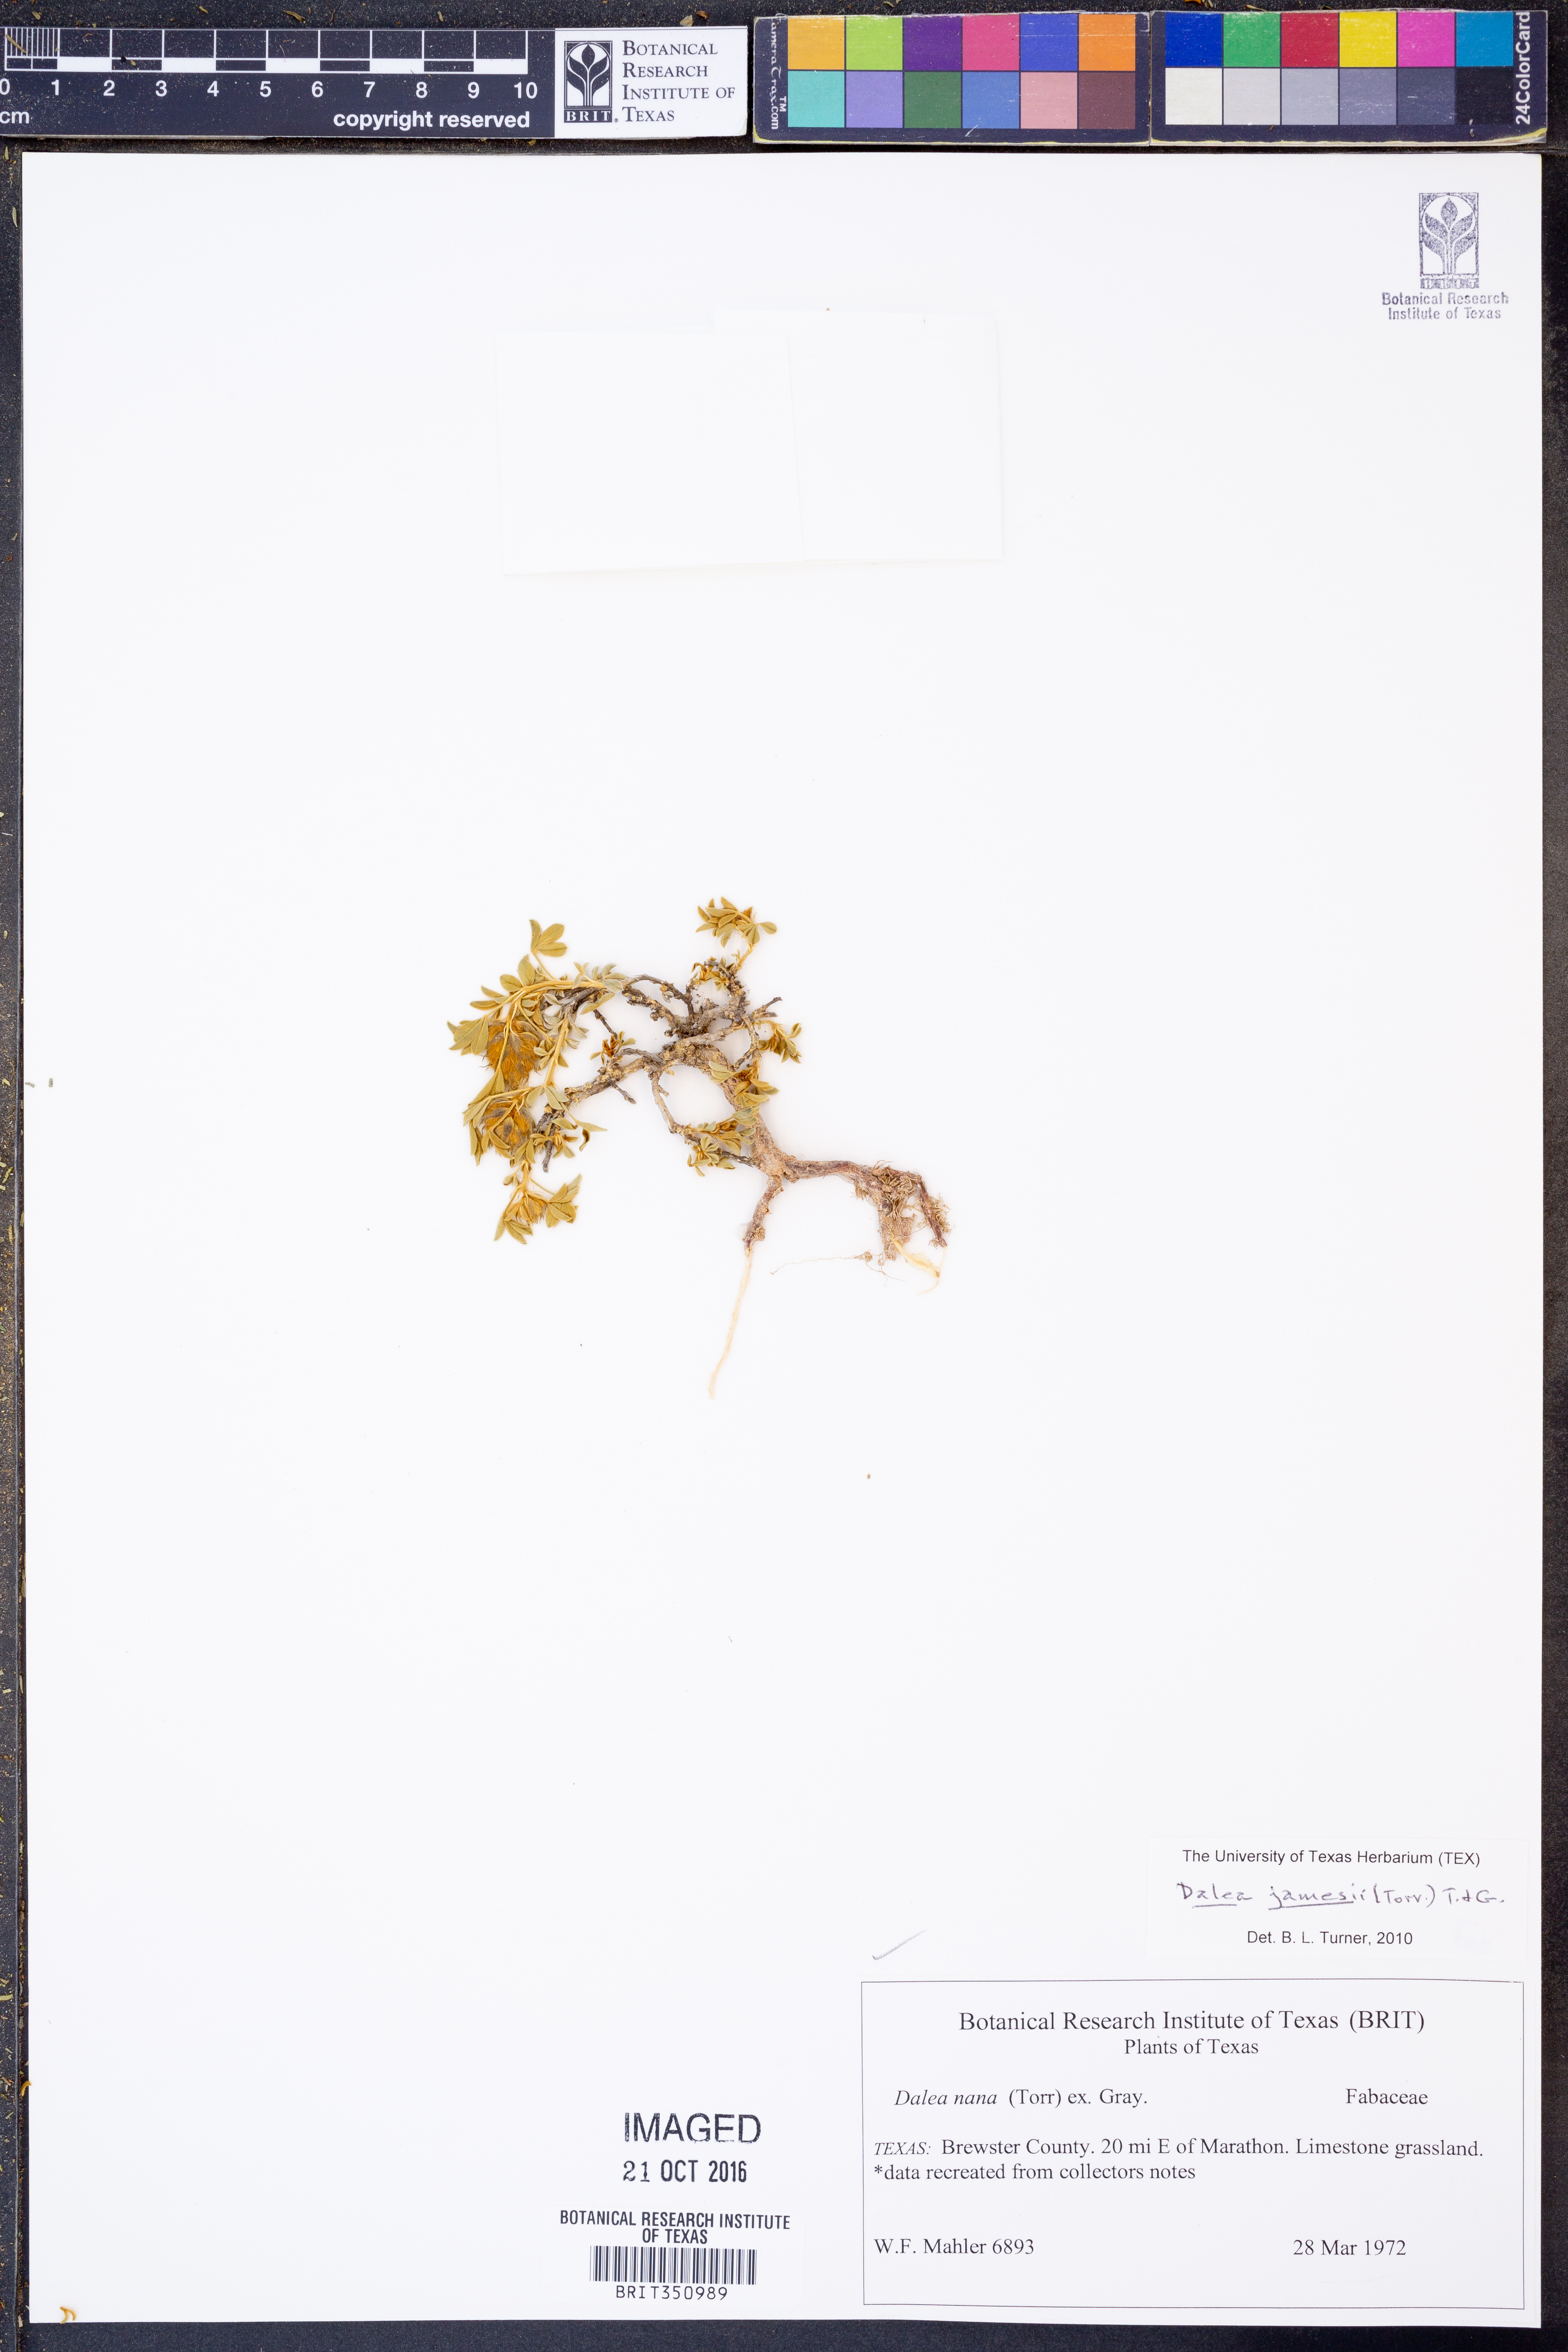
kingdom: Plantae
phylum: Tracheophyta
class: Magnoliopsida
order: Fabales
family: Fabaceae
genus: Dalea
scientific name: Dalea jamesii
